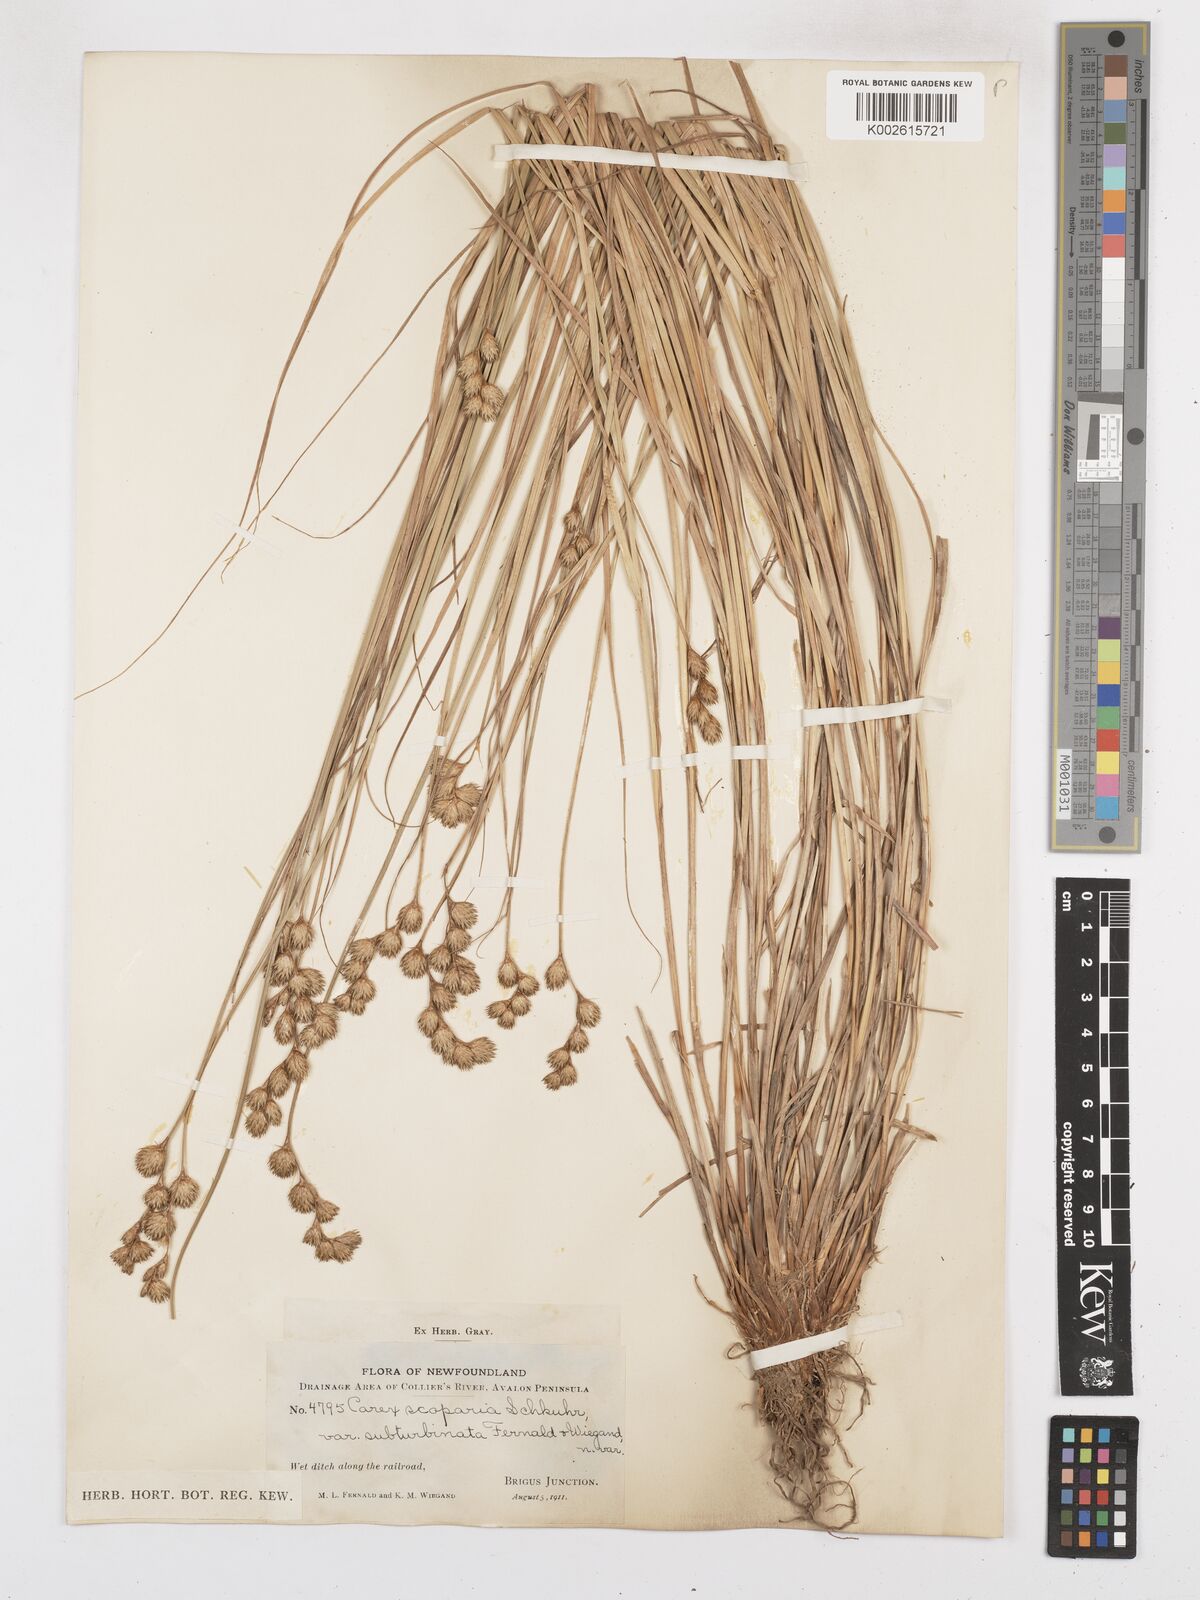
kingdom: Plantae
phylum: Tracheophyta
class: Liliopsida
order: Poales
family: Cyperaceae
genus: Carex
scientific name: Carex leporina
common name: Oval sedge
